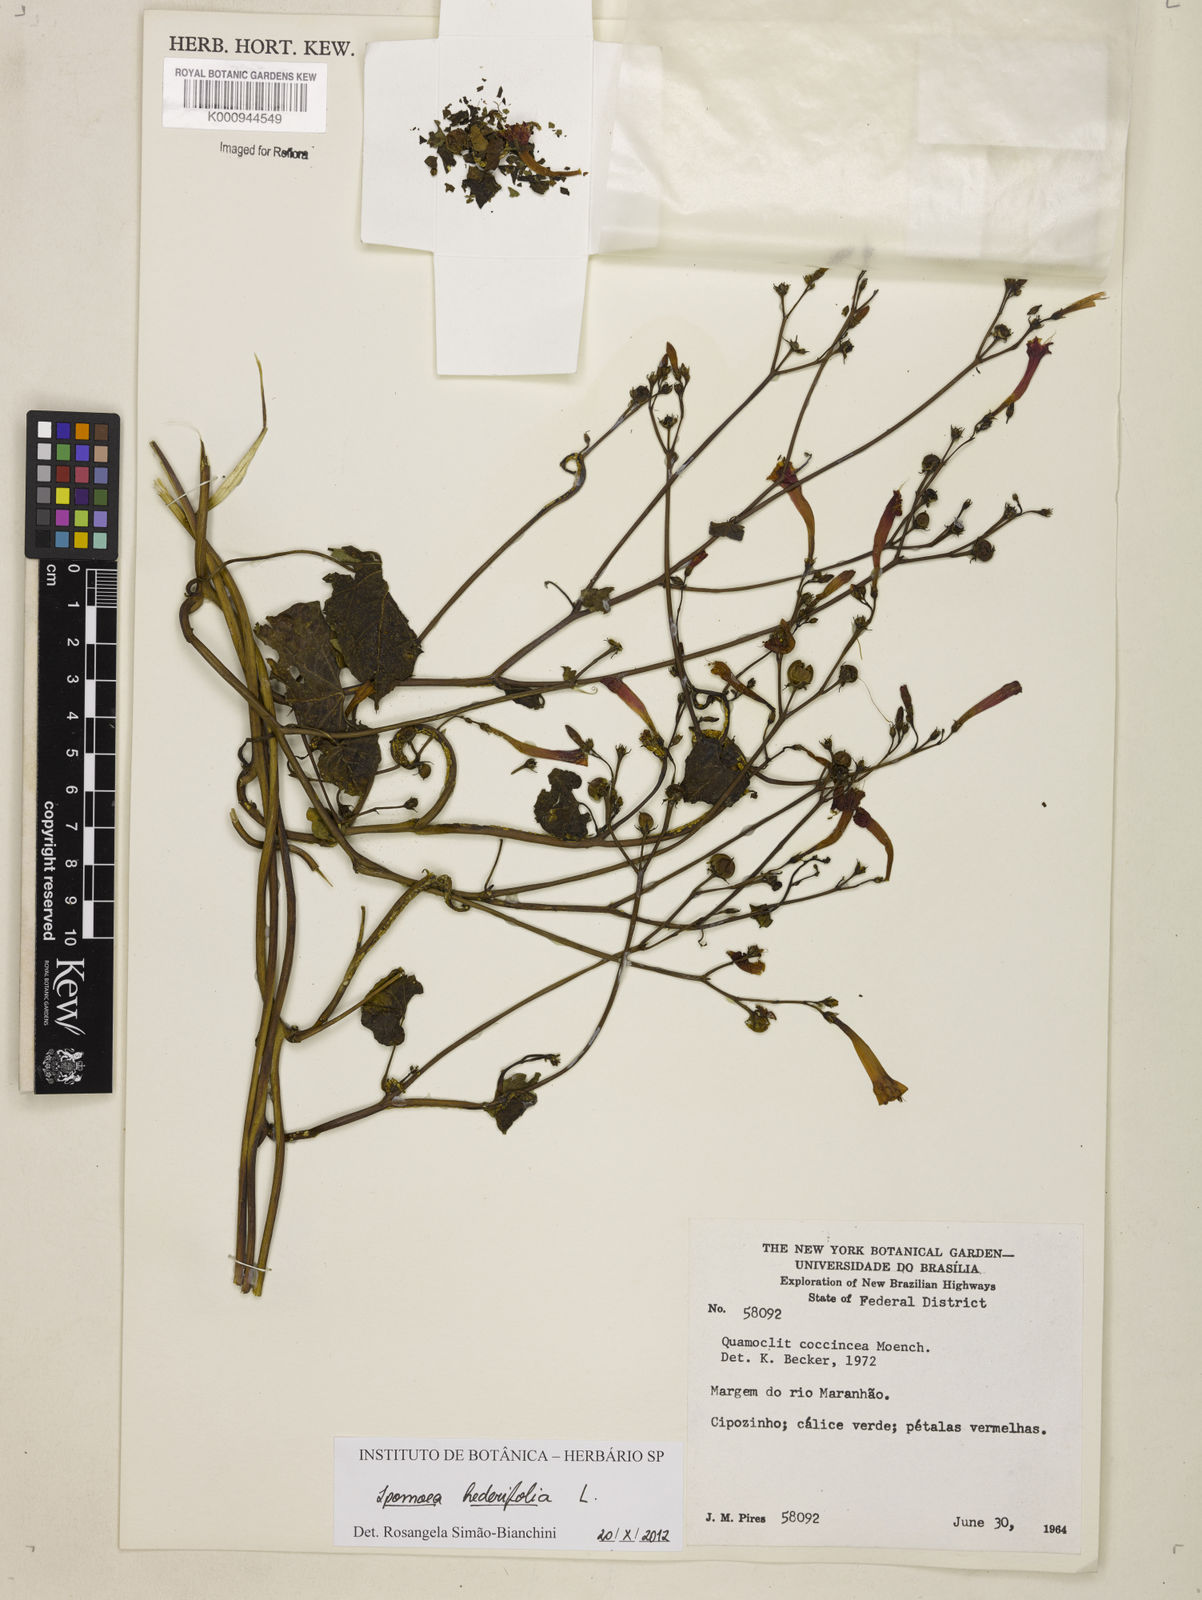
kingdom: Plantae
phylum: Tracheophyta
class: Magnoliopsida
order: Solanales
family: Convolvulaceae
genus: Ipomoea
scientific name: Ipomoea hederifolia
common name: Ivy-leaf morning-glory
